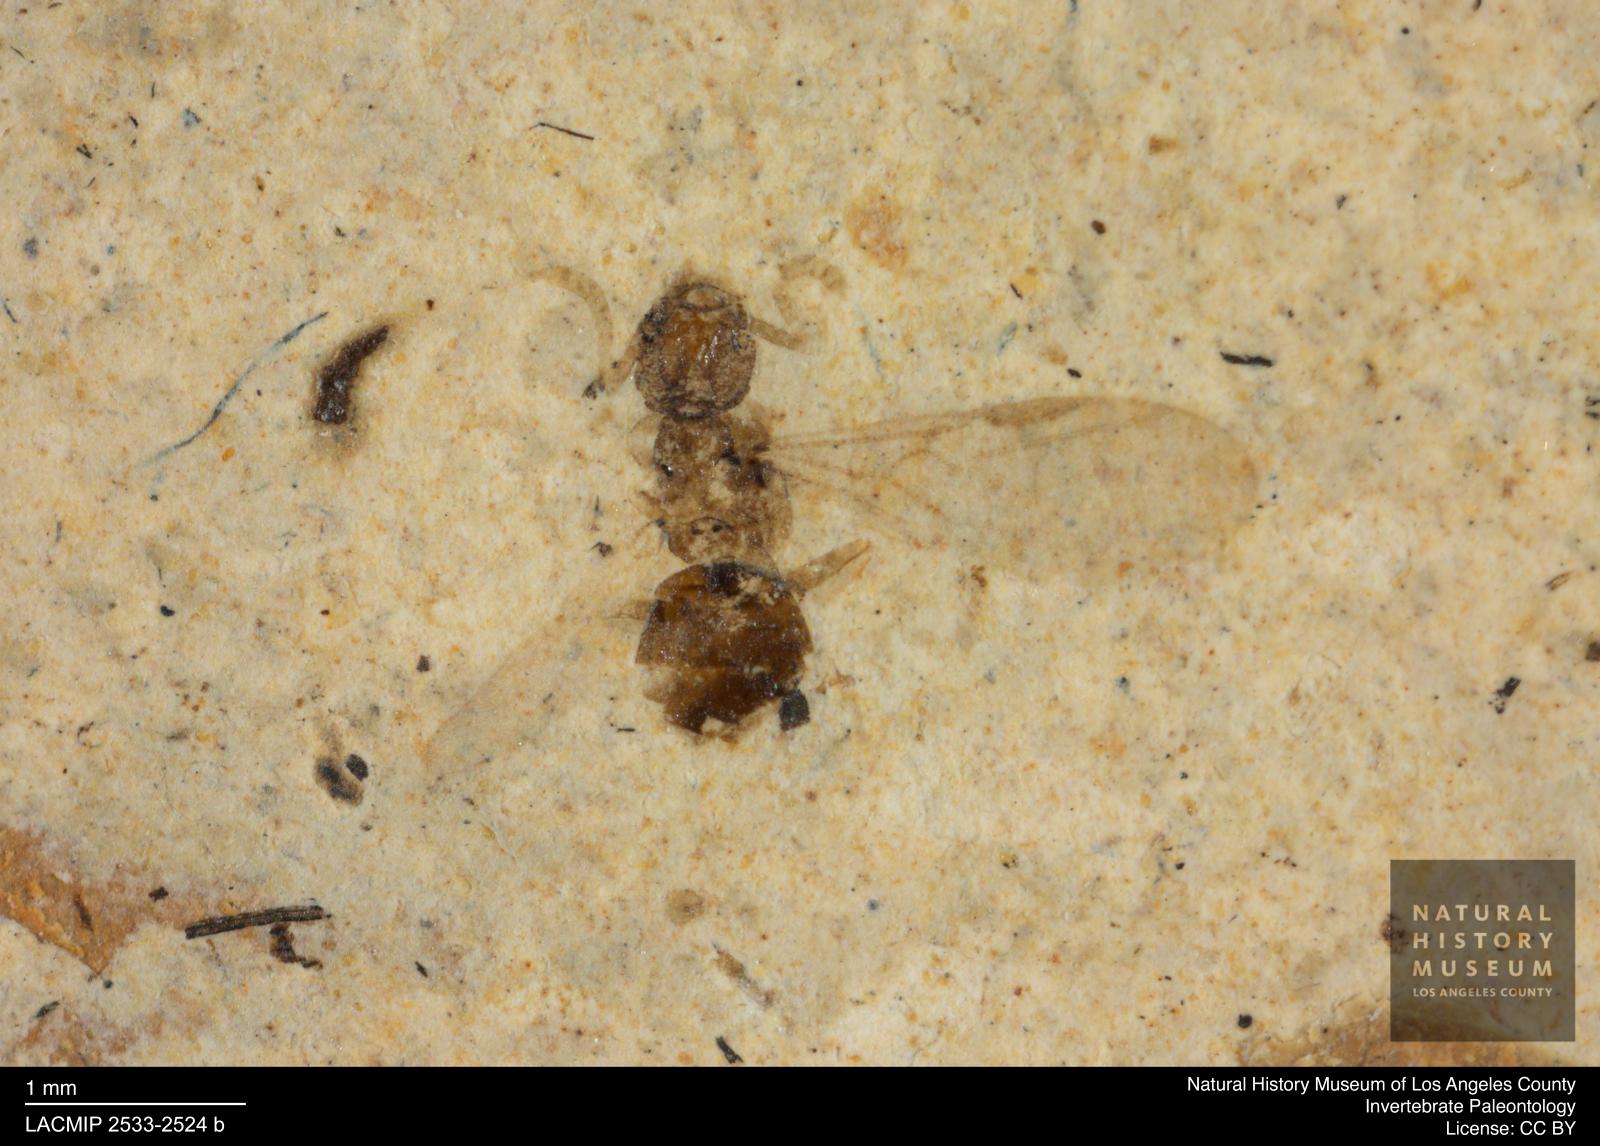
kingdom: Animalia
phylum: Arthropoda
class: Insecta
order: Hymenoptera
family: Formicidae
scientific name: Formicidae
